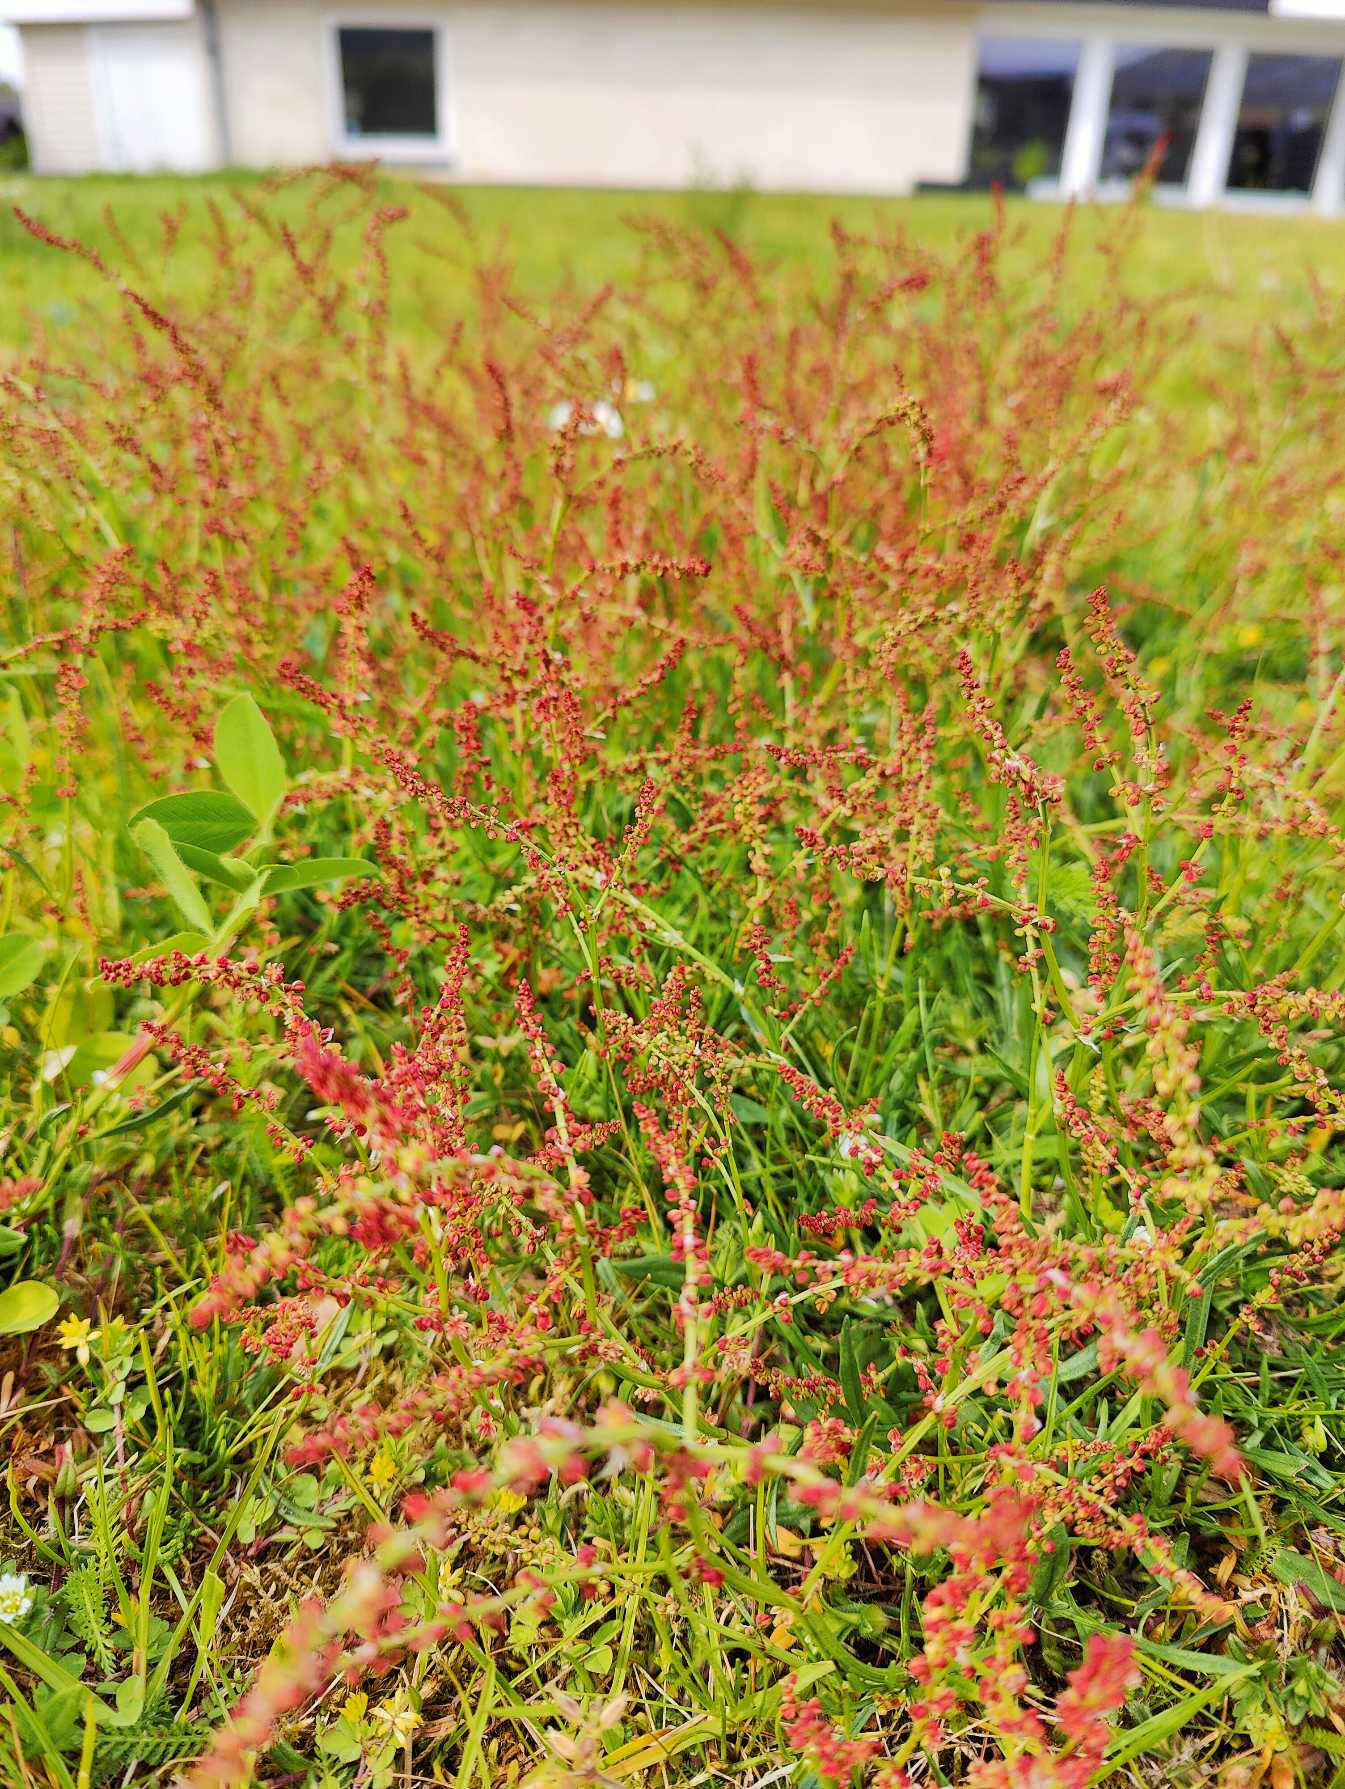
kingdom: Plantae
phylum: Tracheophyta
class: Magnoliopsida
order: Caryophyllales
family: Polygonaceae
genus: Rumex
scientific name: Rumex acetosella
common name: Rødknæ
